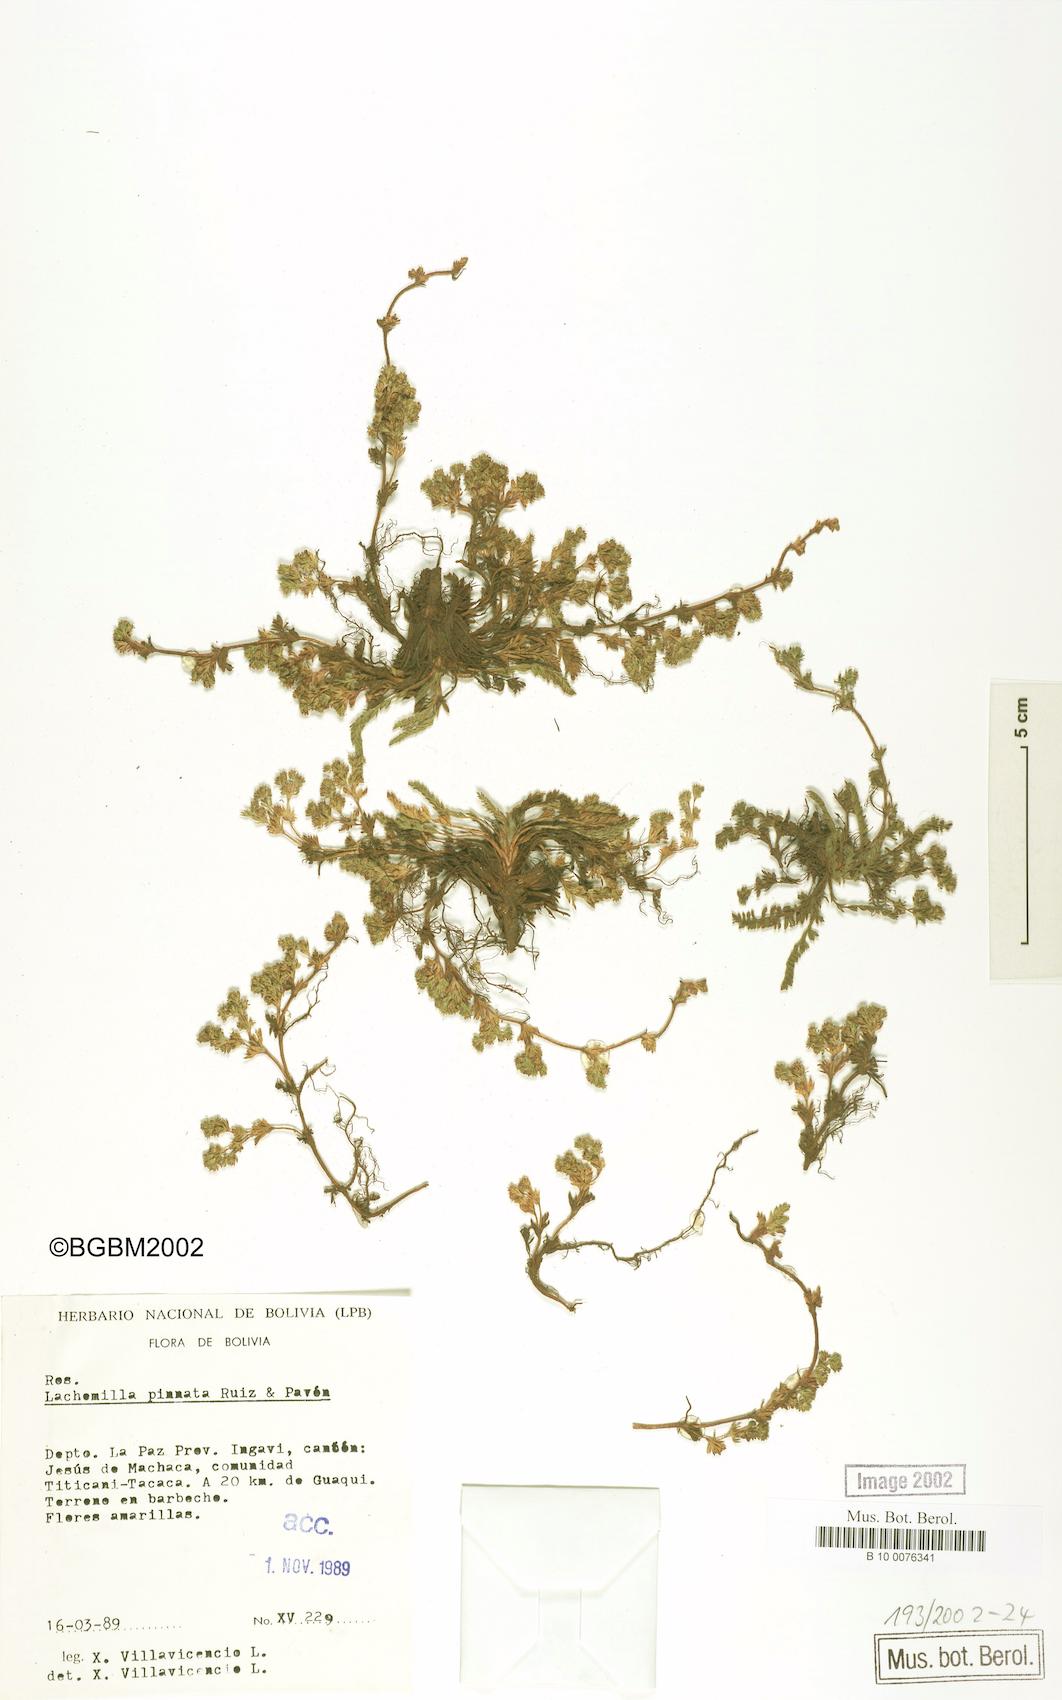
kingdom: Plantae
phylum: Tracheophyta
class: Magnoliopsida
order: Rosales
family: Rosaceae
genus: Lachemilla
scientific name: Lachemilla pinnata
